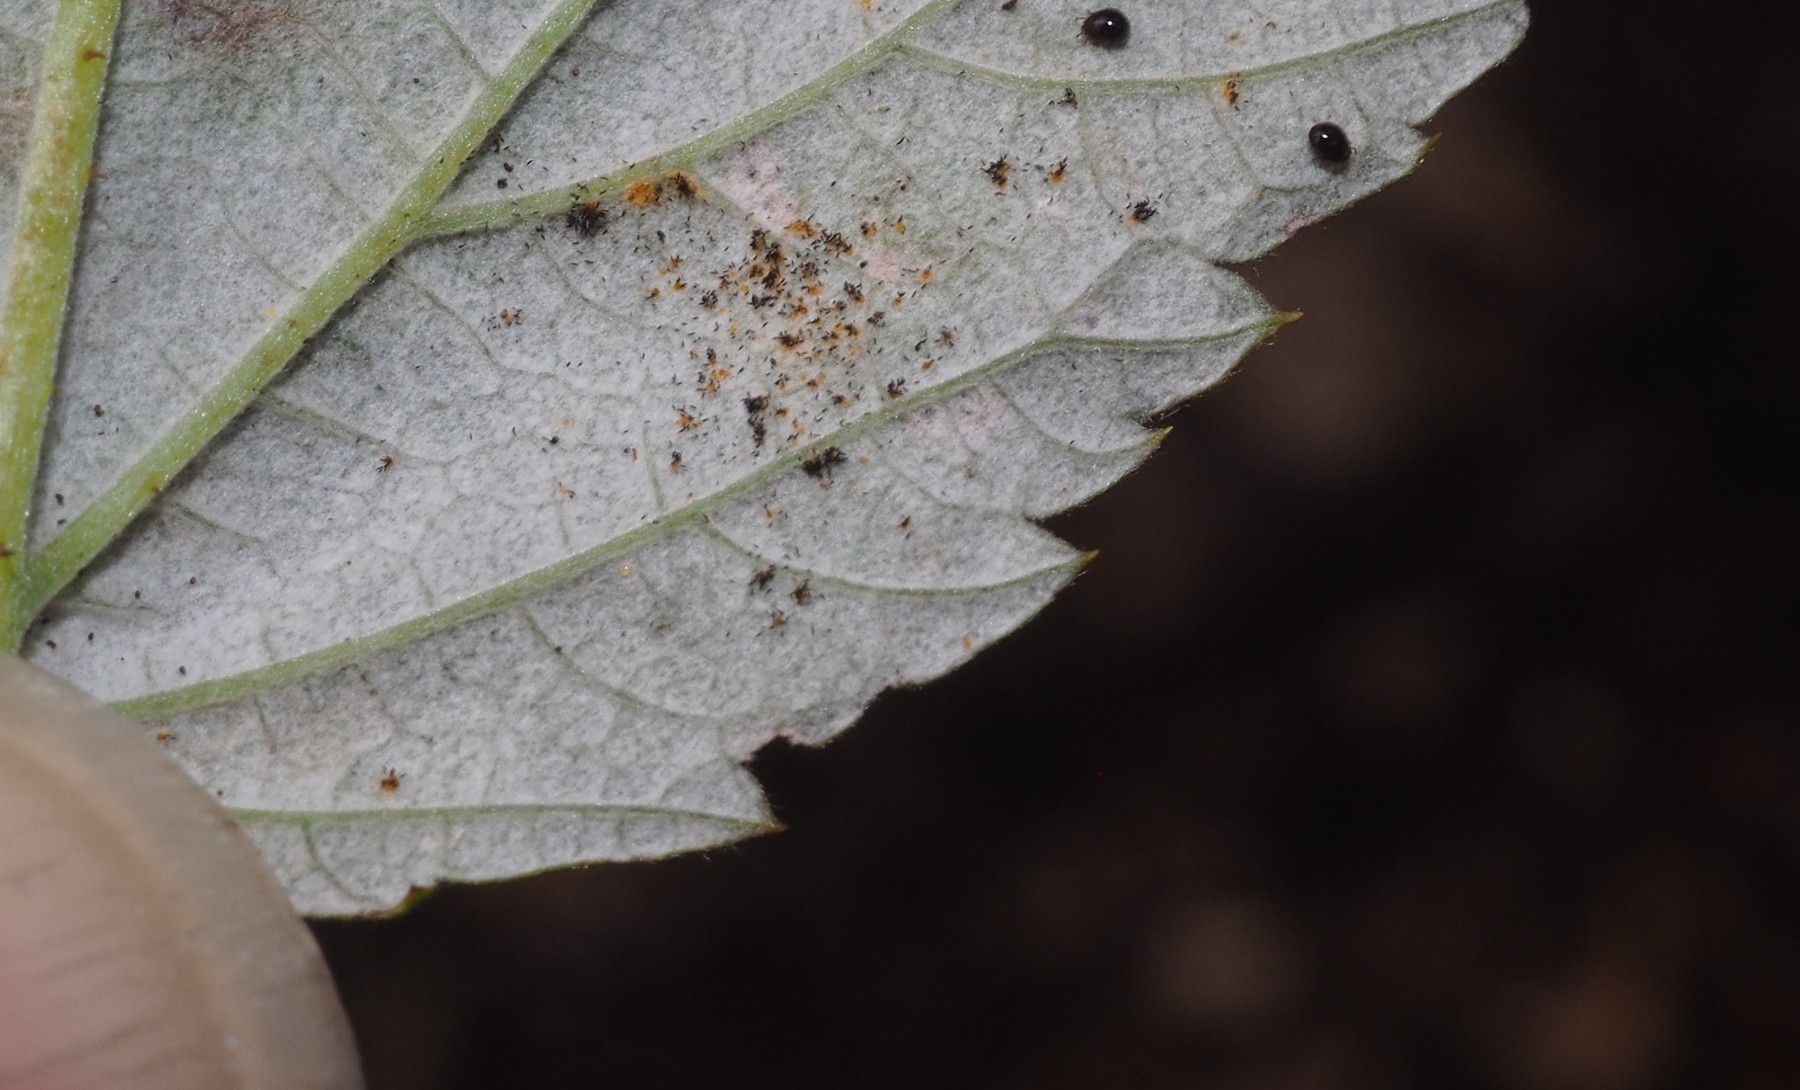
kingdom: Fungi
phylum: Basidiomycota
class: Pucciniomycetes
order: Pucciniales
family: Phragmidiaceae
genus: Phragmidium
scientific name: Phragmidium rubi-idaei
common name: hindbær-flercellerust
